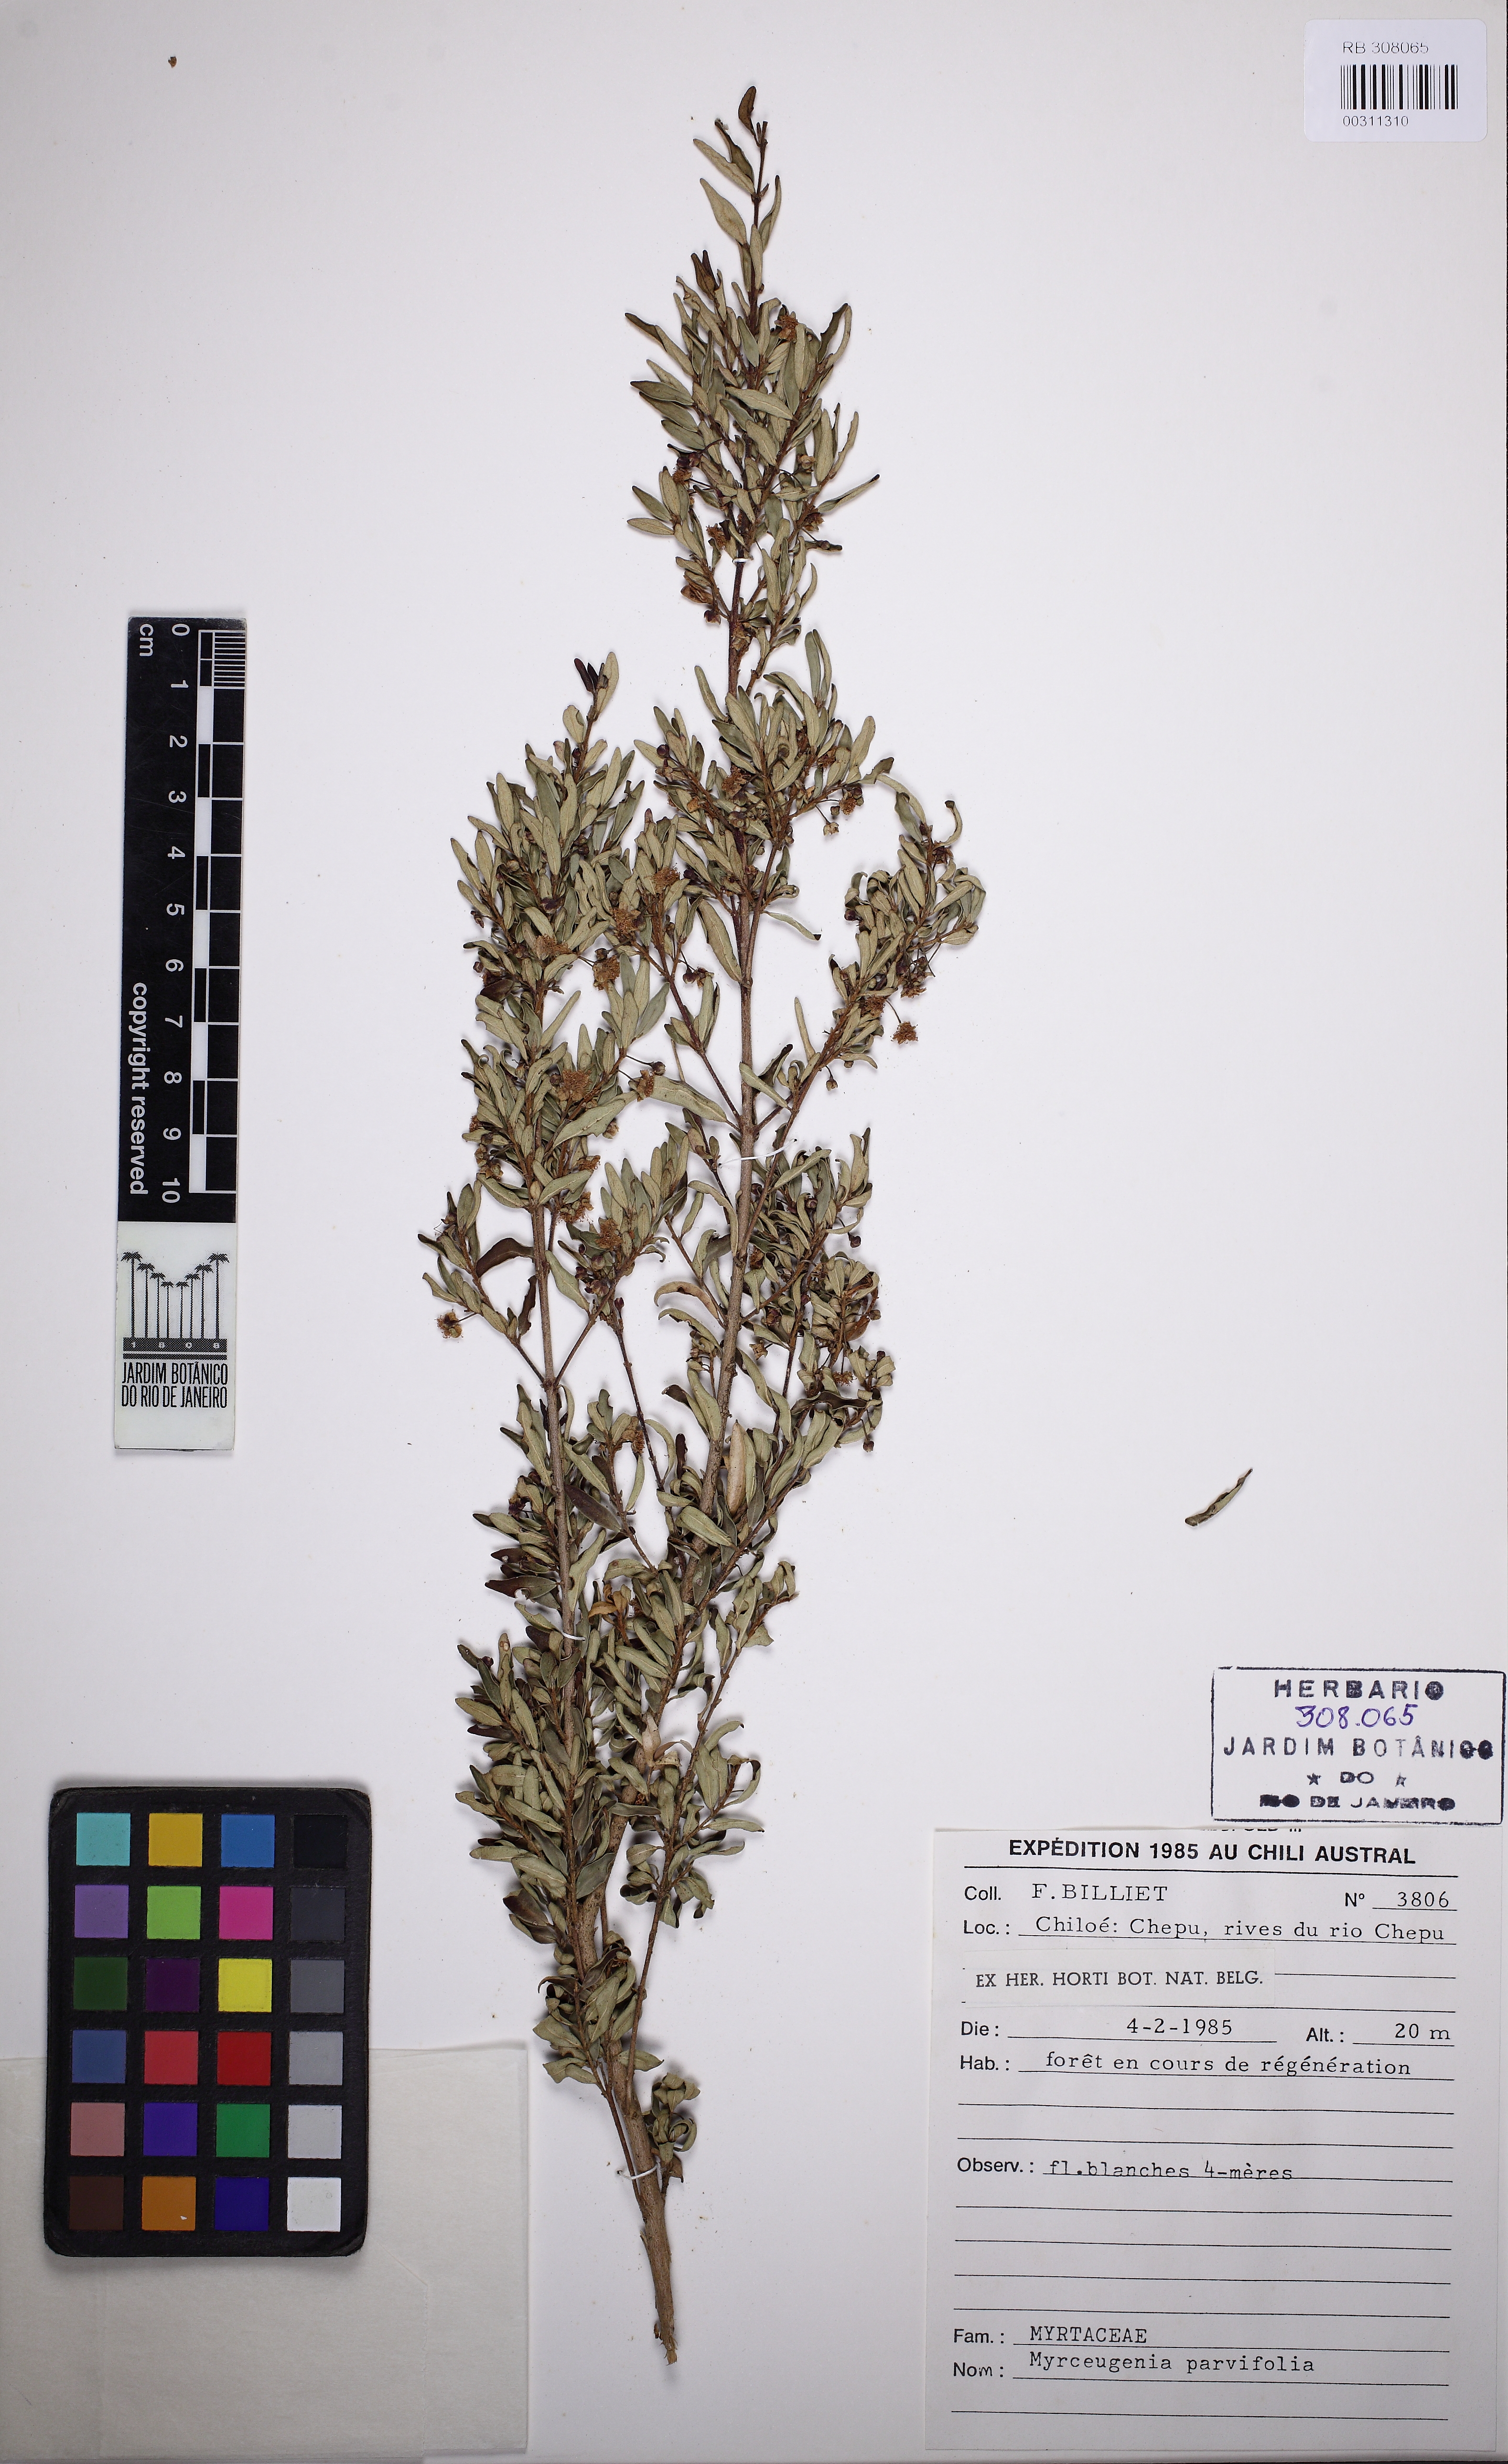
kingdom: Plantae
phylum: Tracheophyta
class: Magnoliopsida
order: Myrtales
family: Myrtaceae
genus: Myrceugenia
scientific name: Myrceugenia parvifolia
